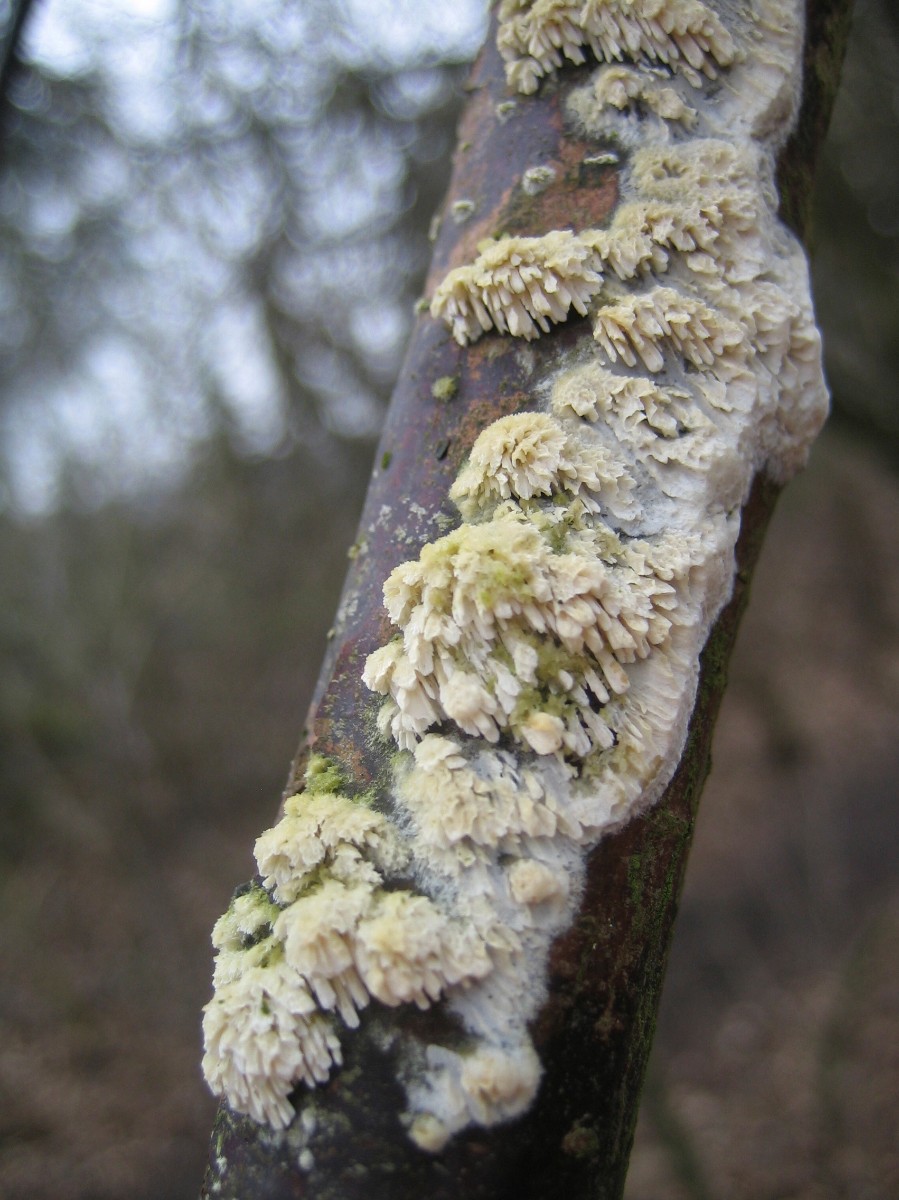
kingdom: Fungi
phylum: Basidiomycota
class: Agaricomycetes
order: Hymenochaetales
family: Schizoporaceae
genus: Xylodon
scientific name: Xylodon radula
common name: grovtandet kalkskind
